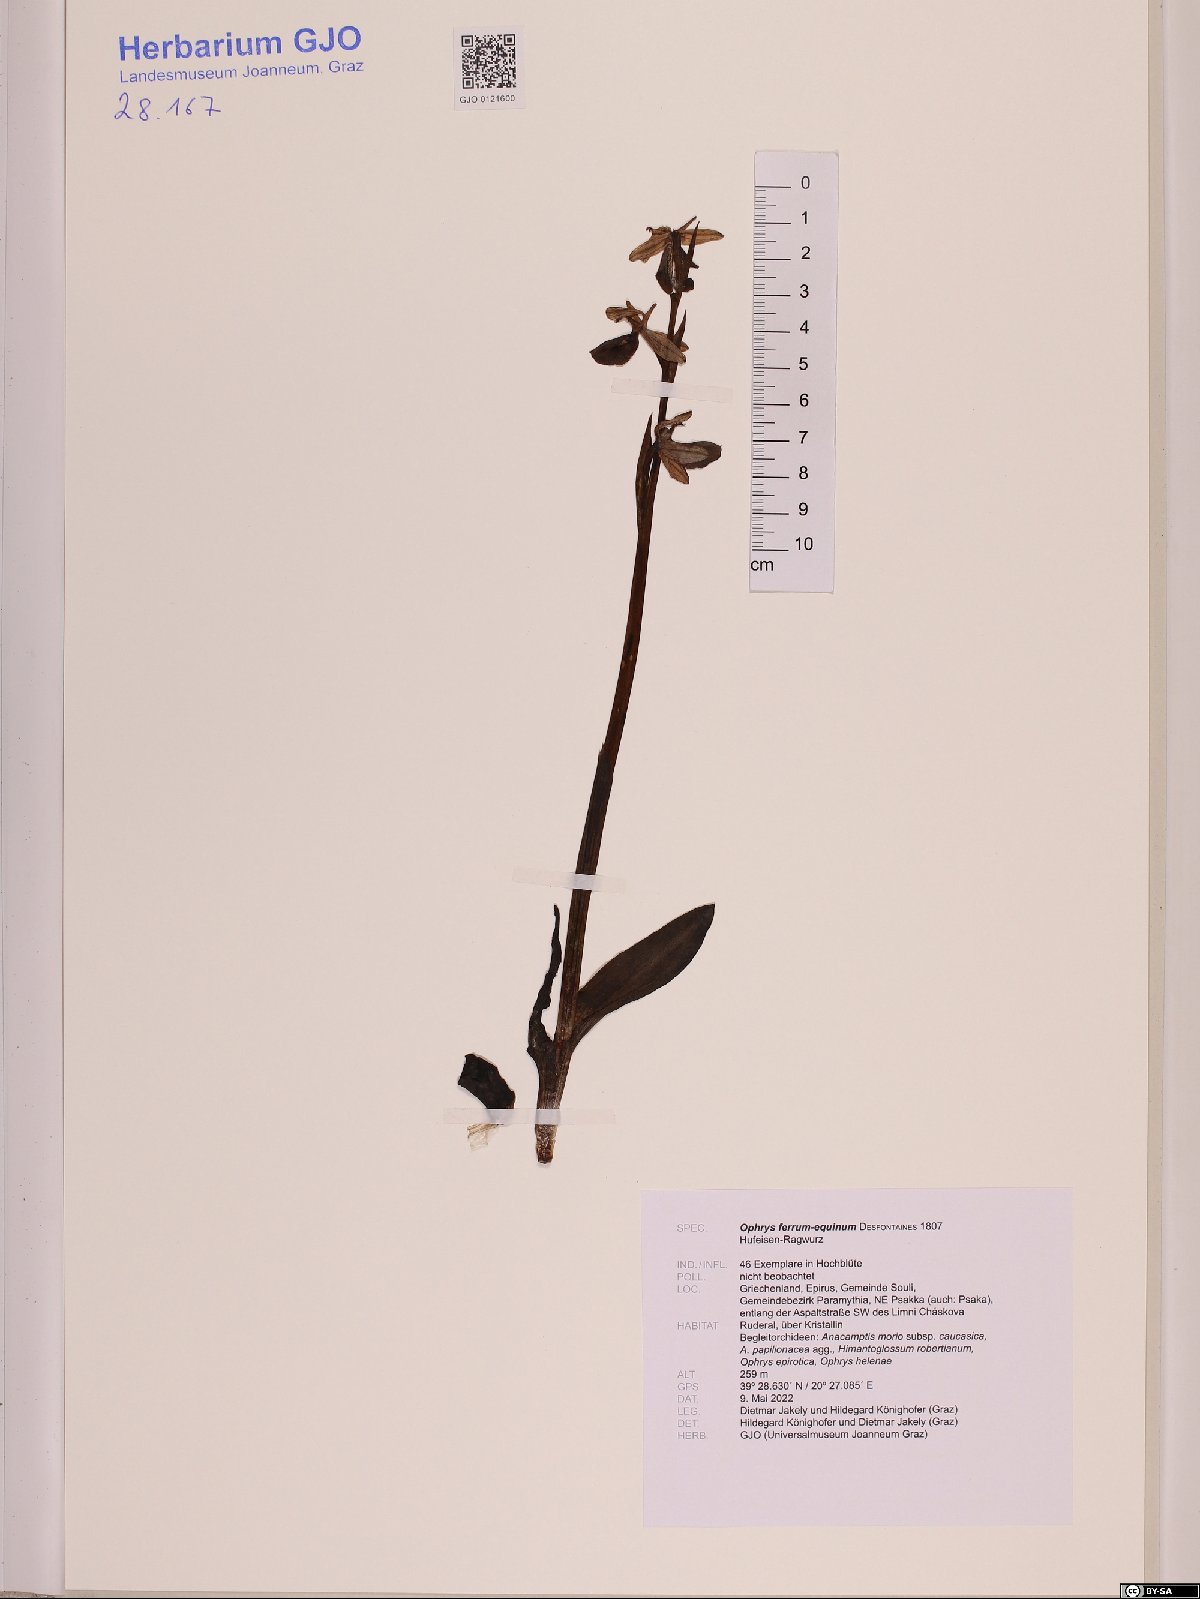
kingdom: Plantae
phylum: Tracheophyta
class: Liliopsida
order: Asparagales
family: Orchidaceae
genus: Ophrys
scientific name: Ophrys ferrum-equinum
